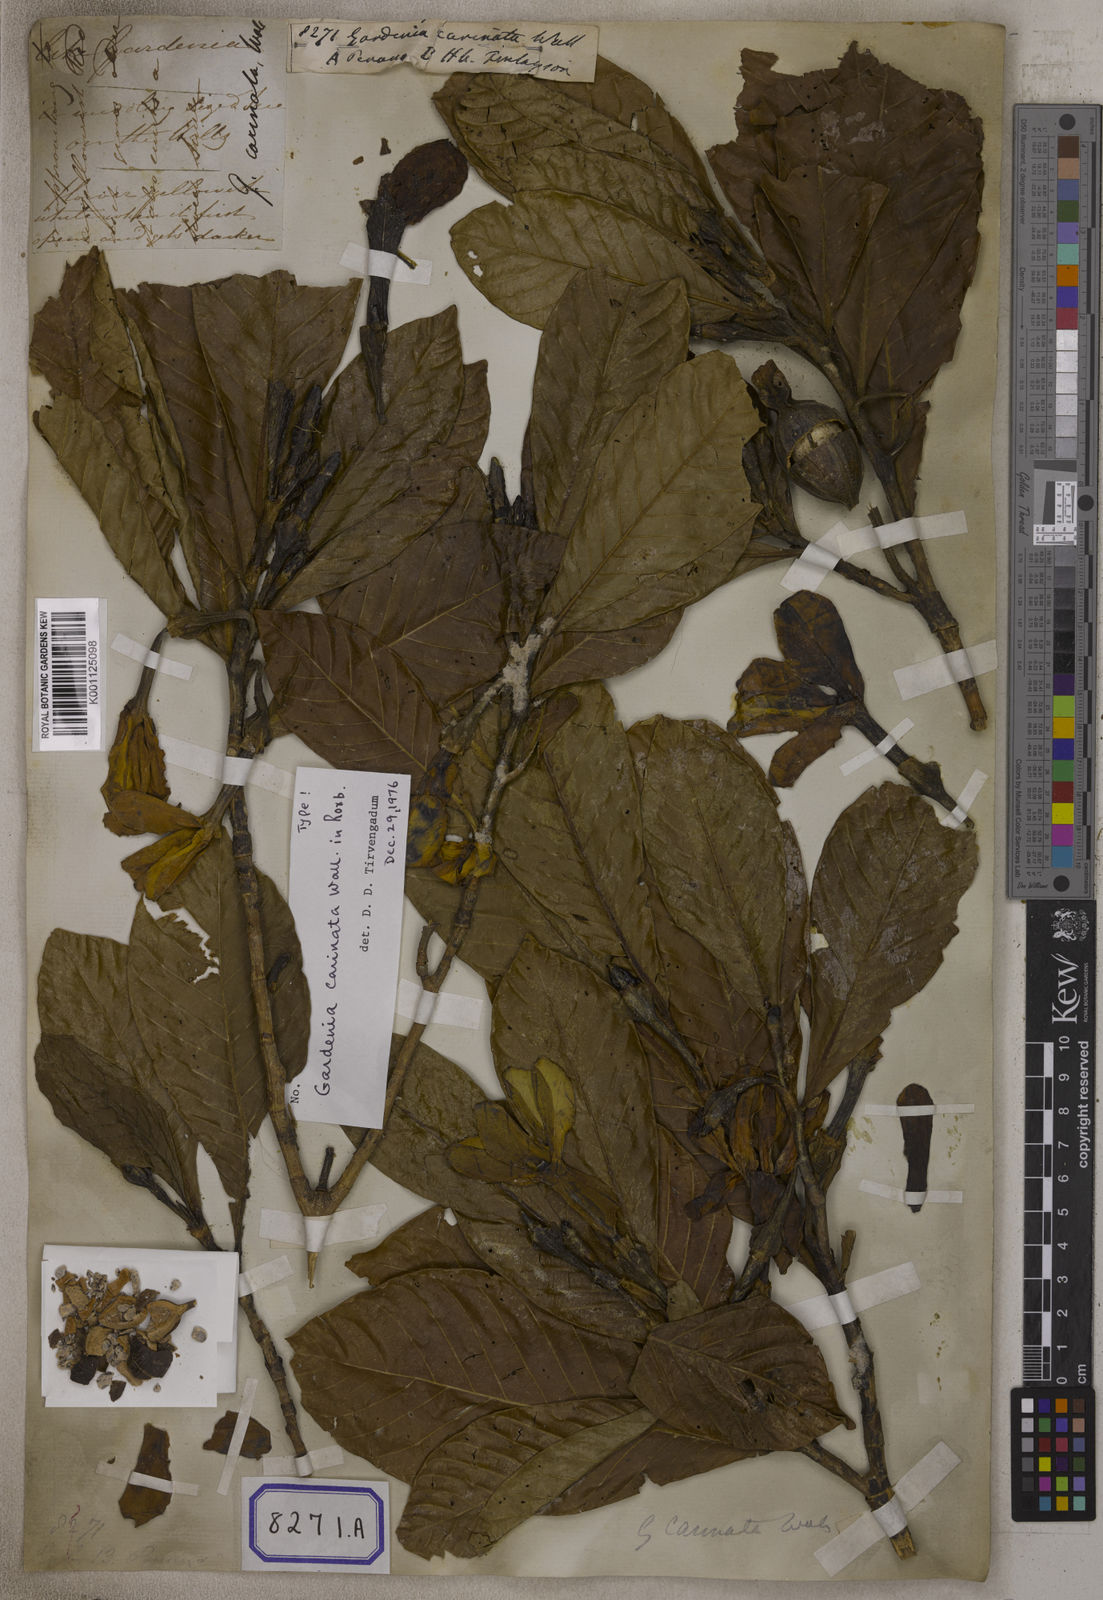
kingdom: Plantae
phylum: Tracheophyta
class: Magnoliopsida
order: Gentianales
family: Rubiaceae
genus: Gardenia
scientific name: Gardenia
